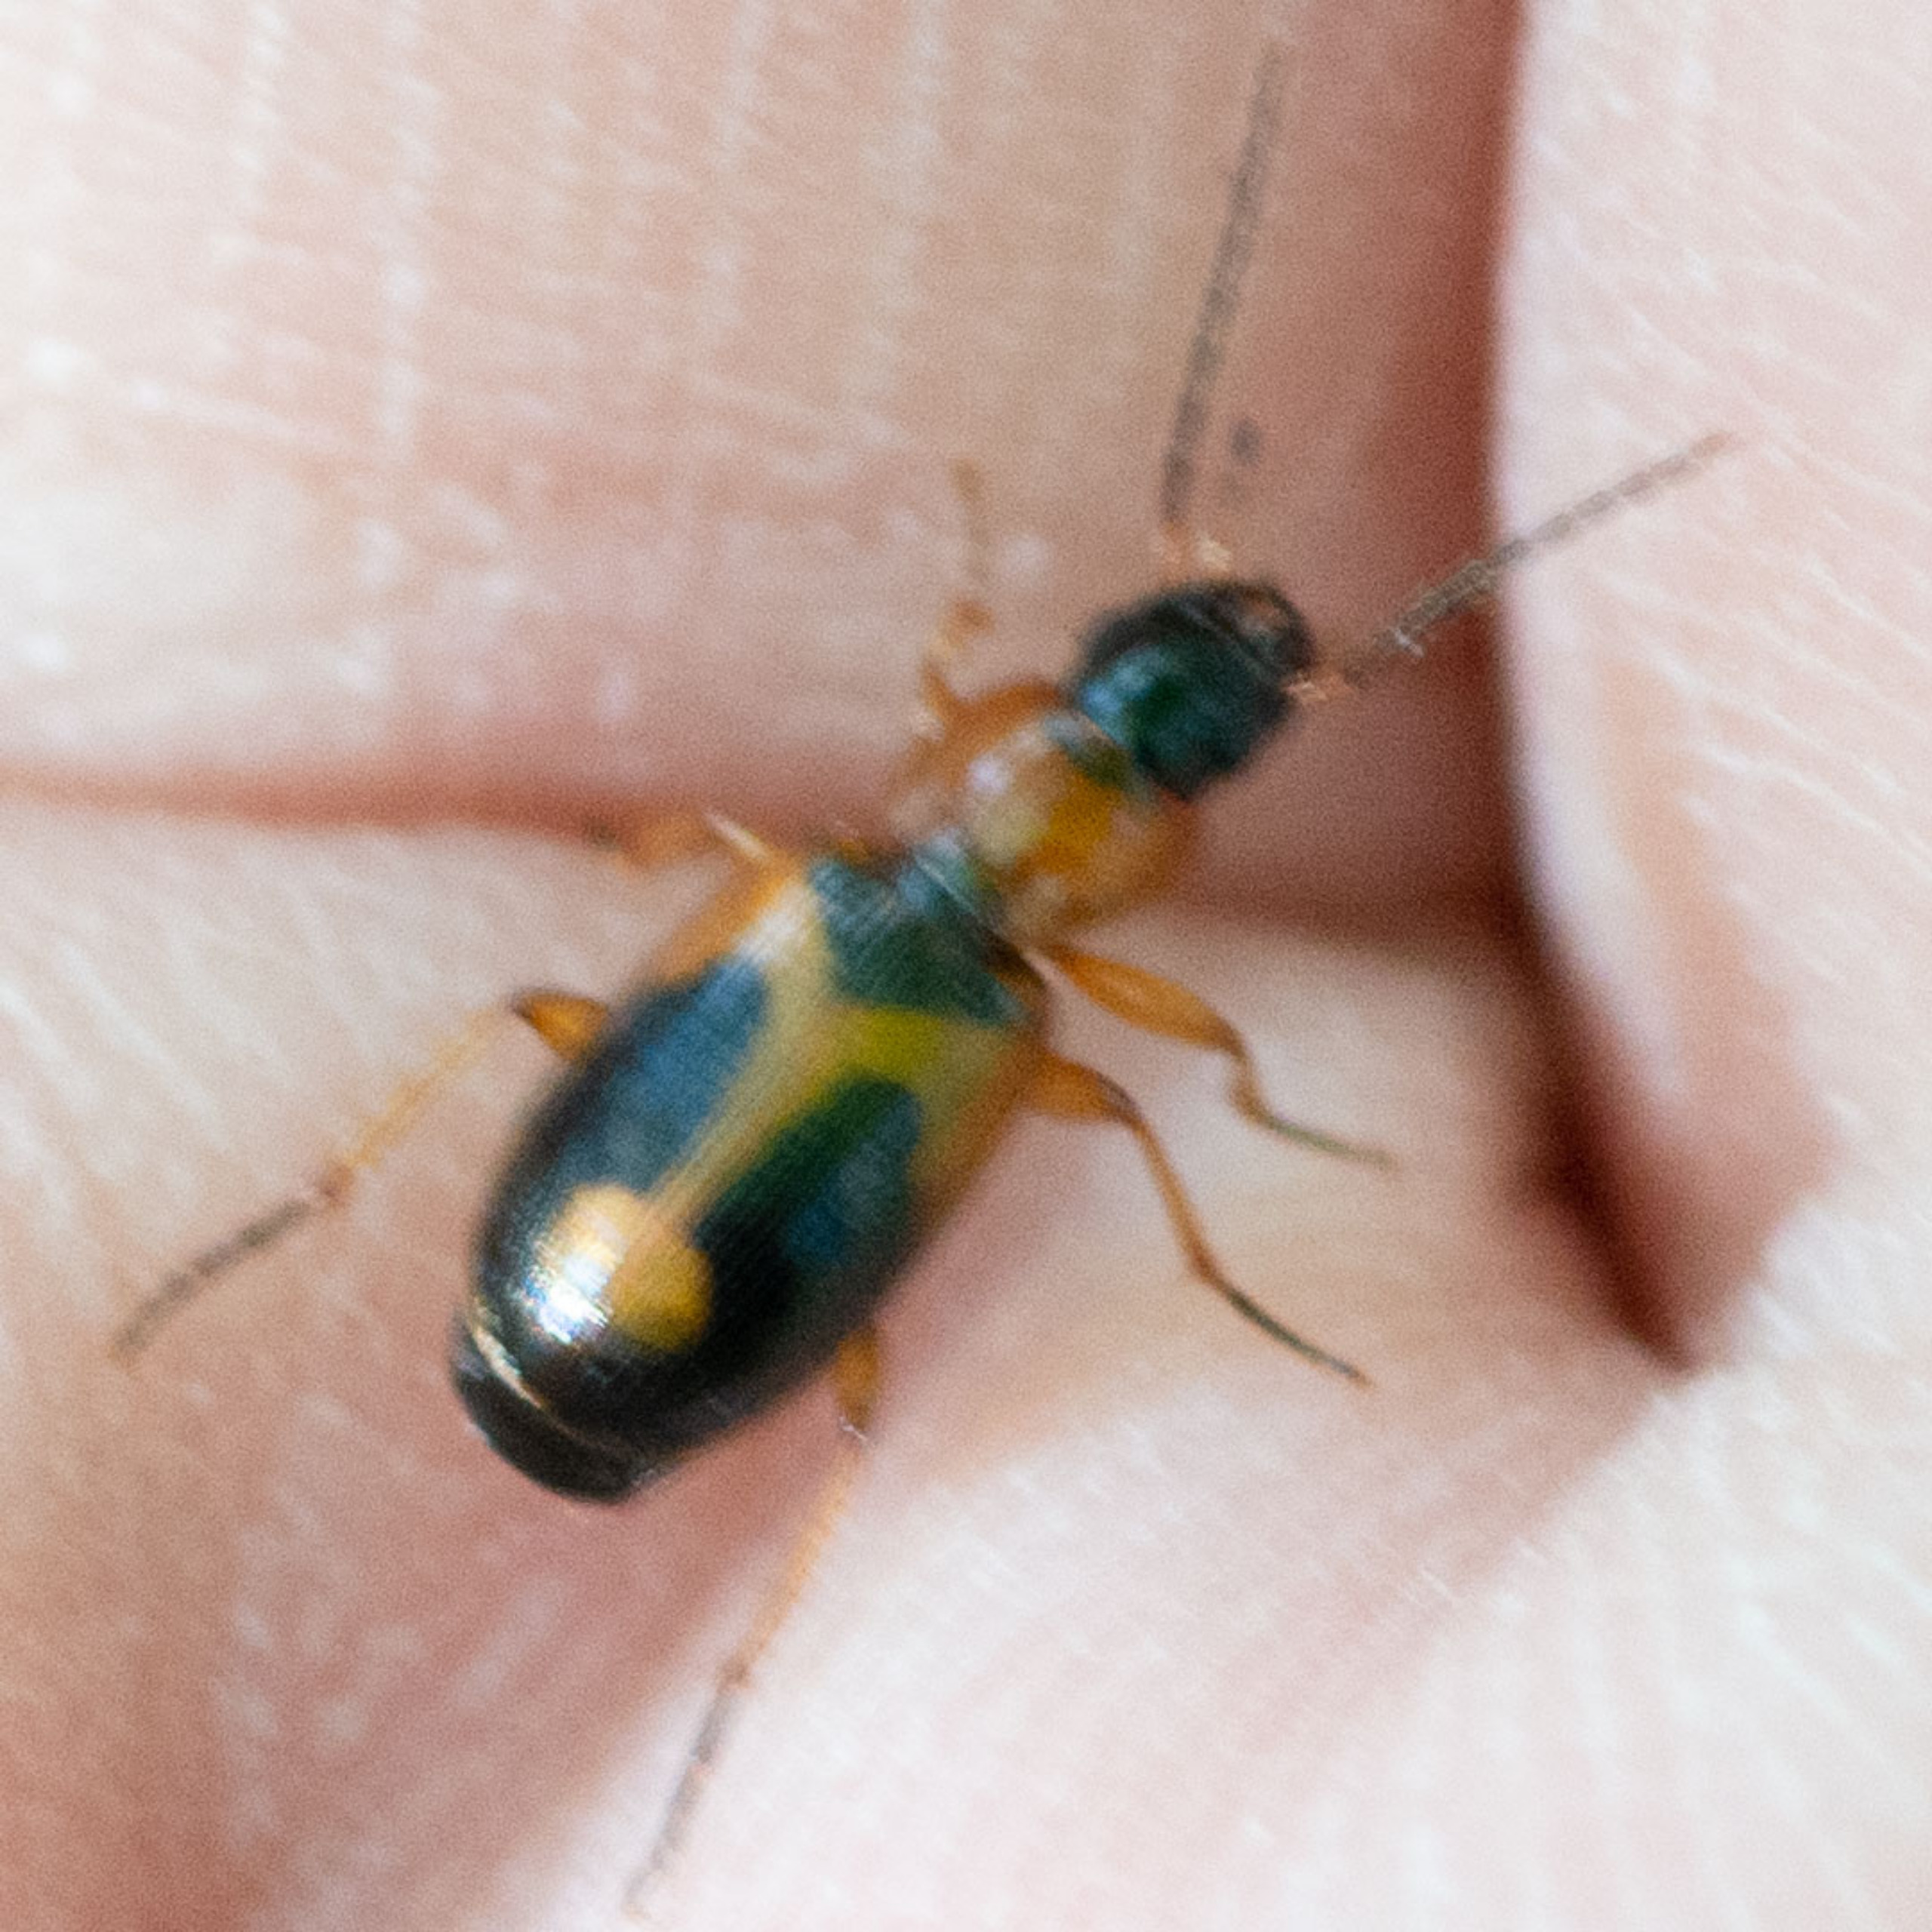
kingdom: Animalia
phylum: Arthropoda
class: Insecta
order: Coleoptera
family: Carabidae
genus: Badister
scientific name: Badister bullatus
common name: Almindelig sumpløber
